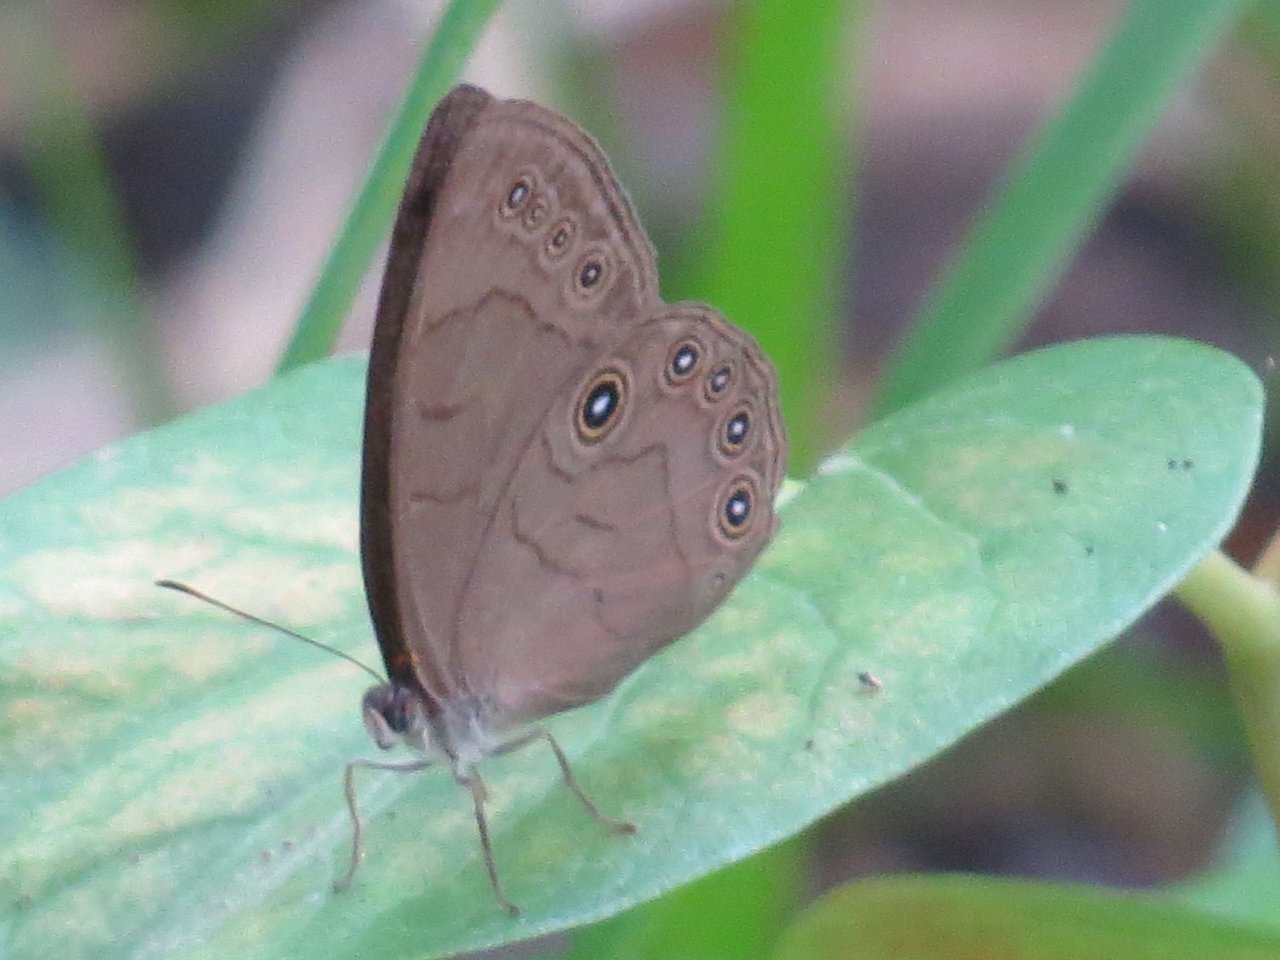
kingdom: Animalia
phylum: Arthropoda
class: Insecta
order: Lepidoptera
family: Nymphalidae
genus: Lethe
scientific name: Lethe eurydice
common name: Appalachian Eyed Brown
